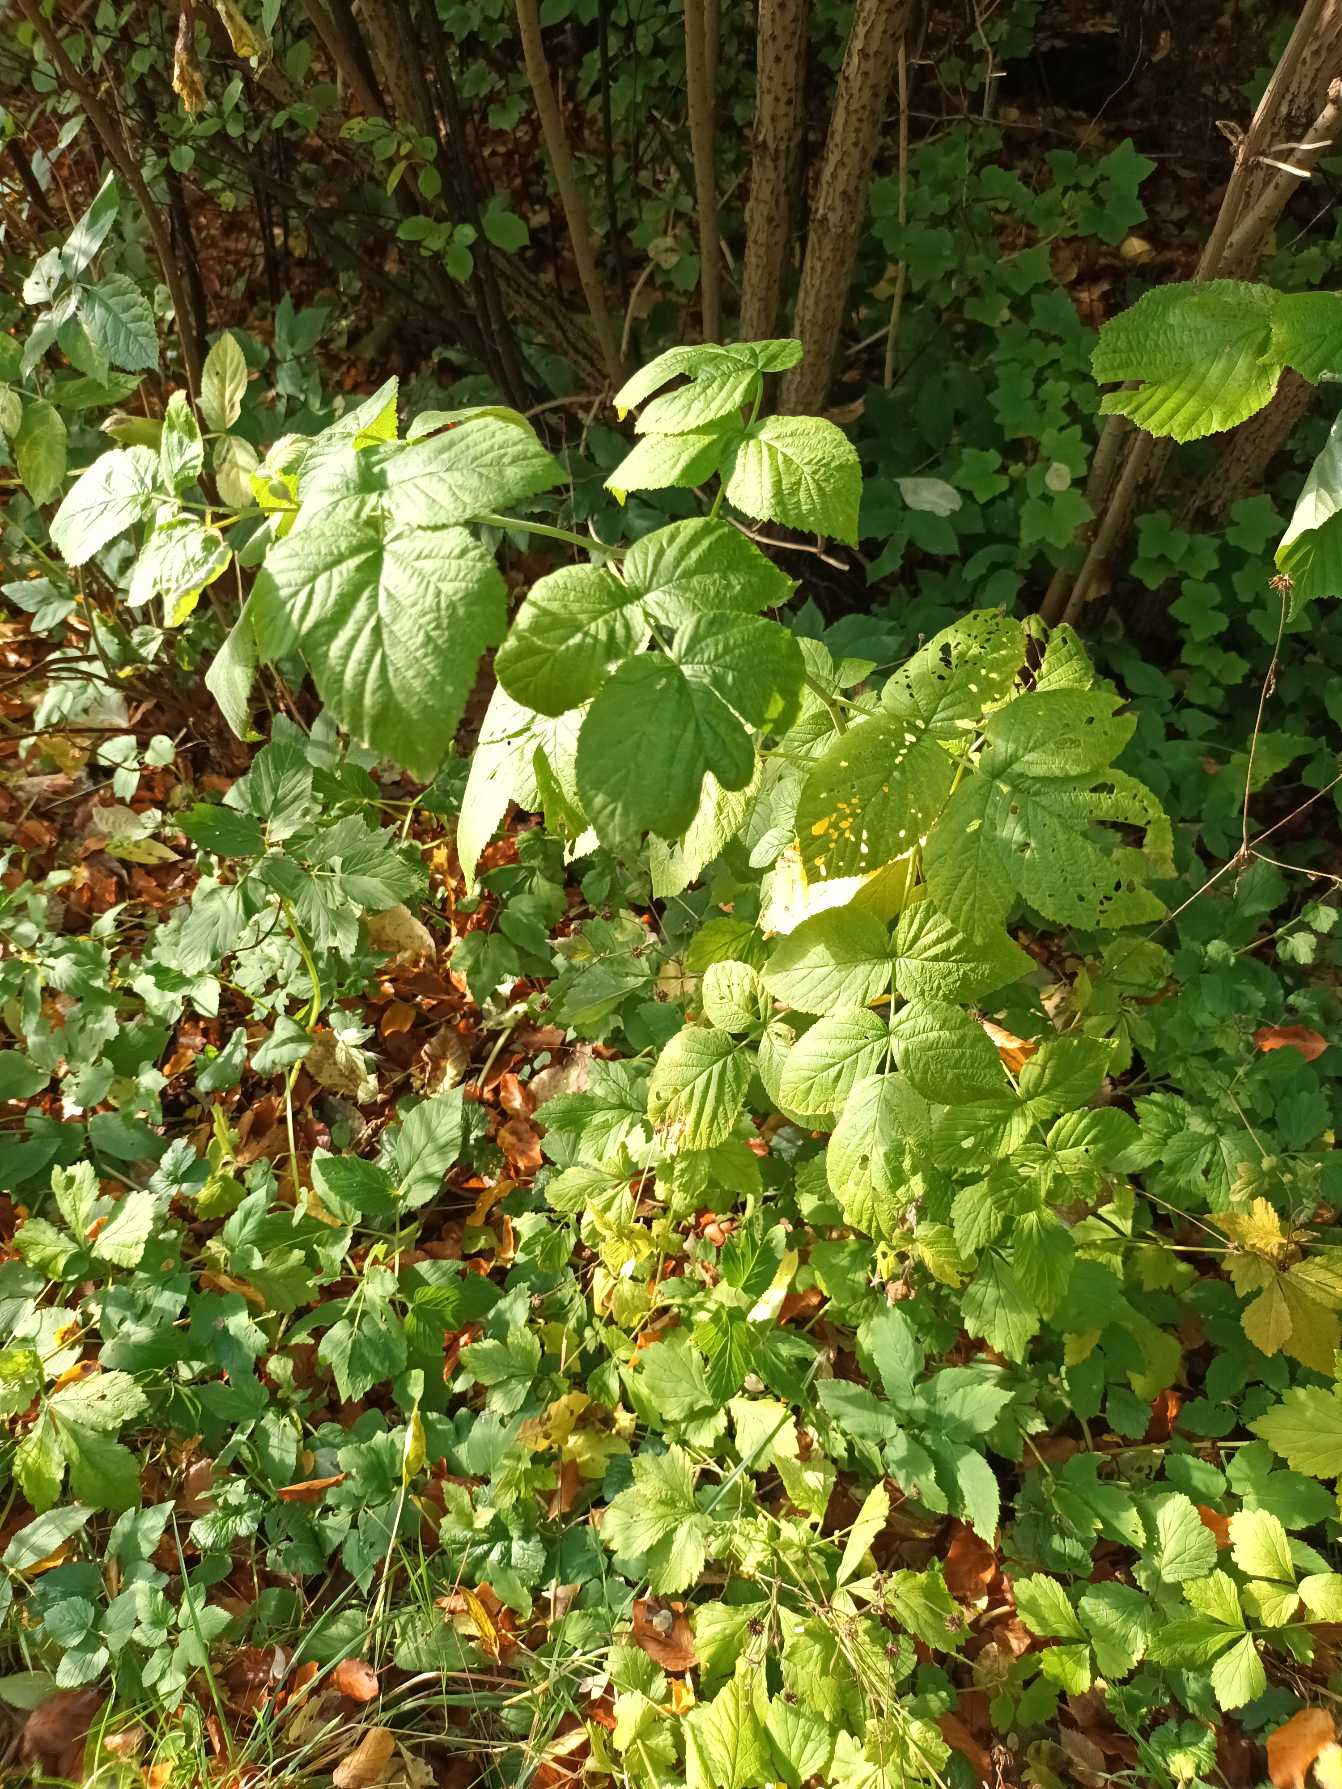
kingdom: Plantae
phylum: Tracheophyta
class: Magnoliopsida
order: Rosales
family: Rosaceae
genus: Rubus
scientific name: Rubus idaeus
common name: Hindbær
